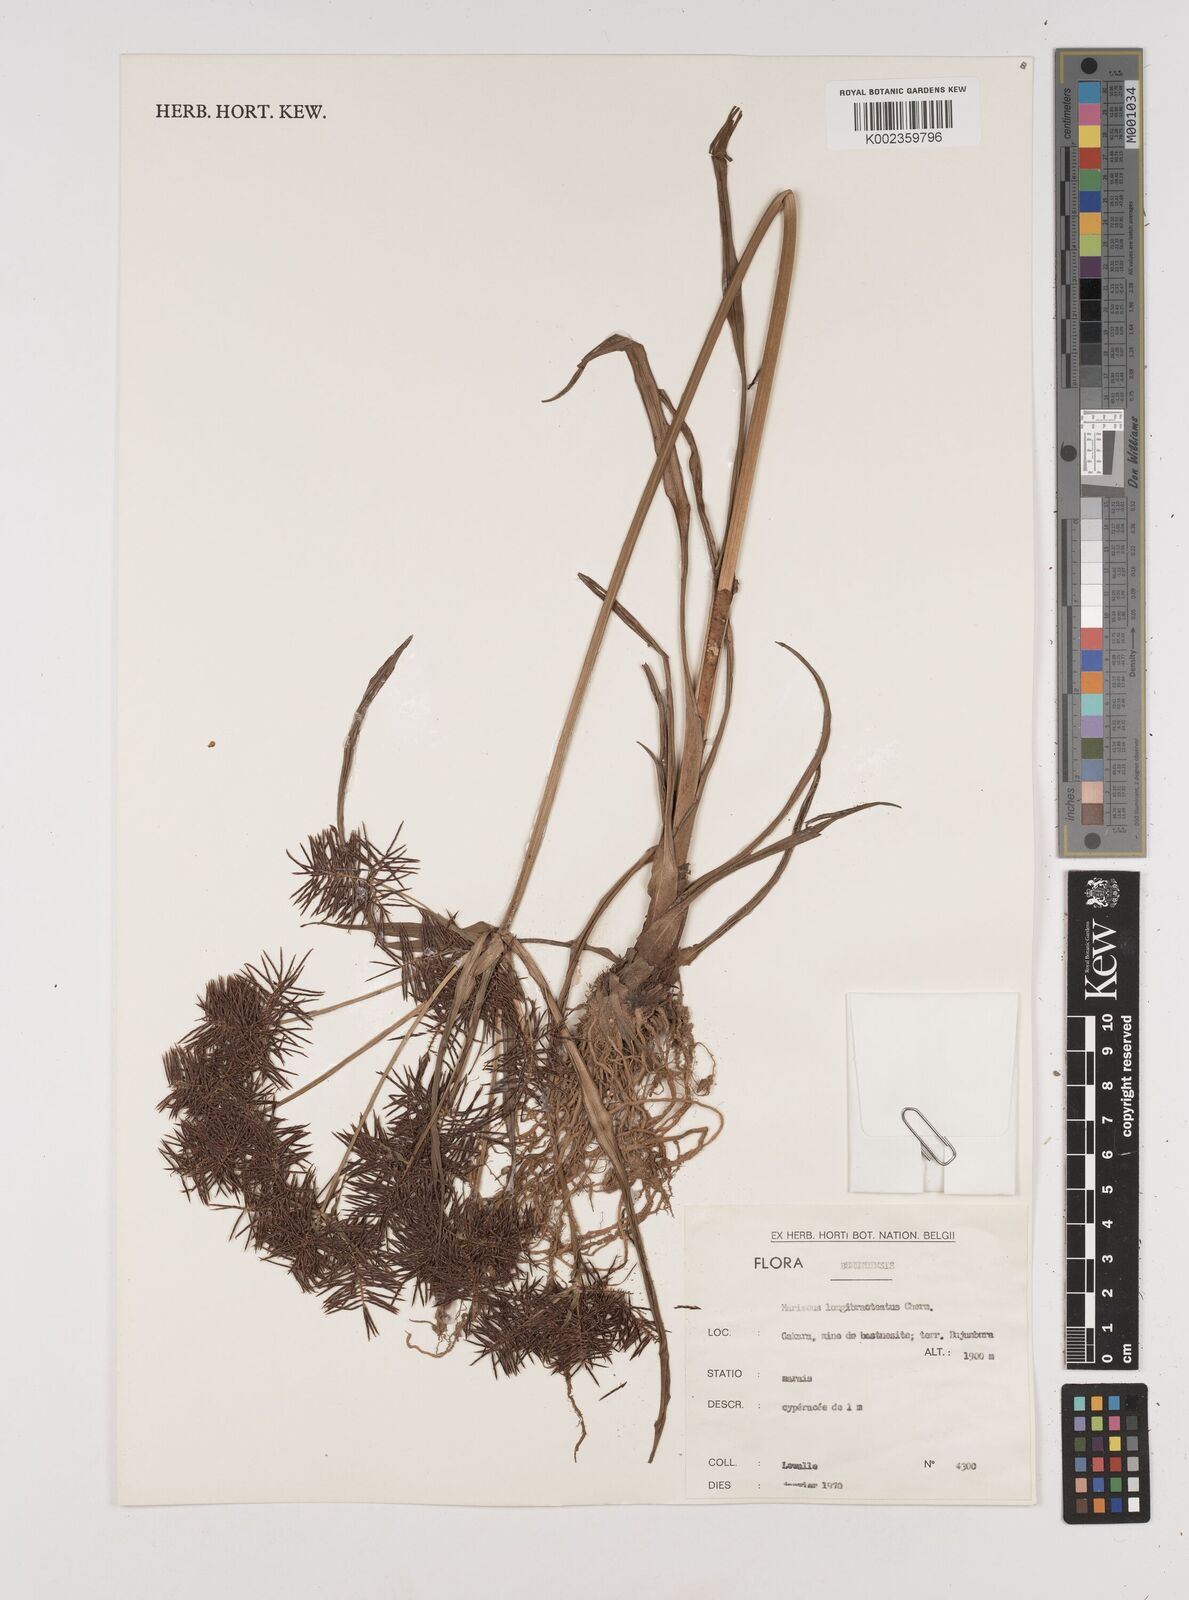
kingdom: Plantae
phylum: Tracheophyta
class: Liliopsida
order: Poales
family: Cyperaceae
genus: Cyperus
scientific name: Cyperus distans
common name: Slender cyperus
